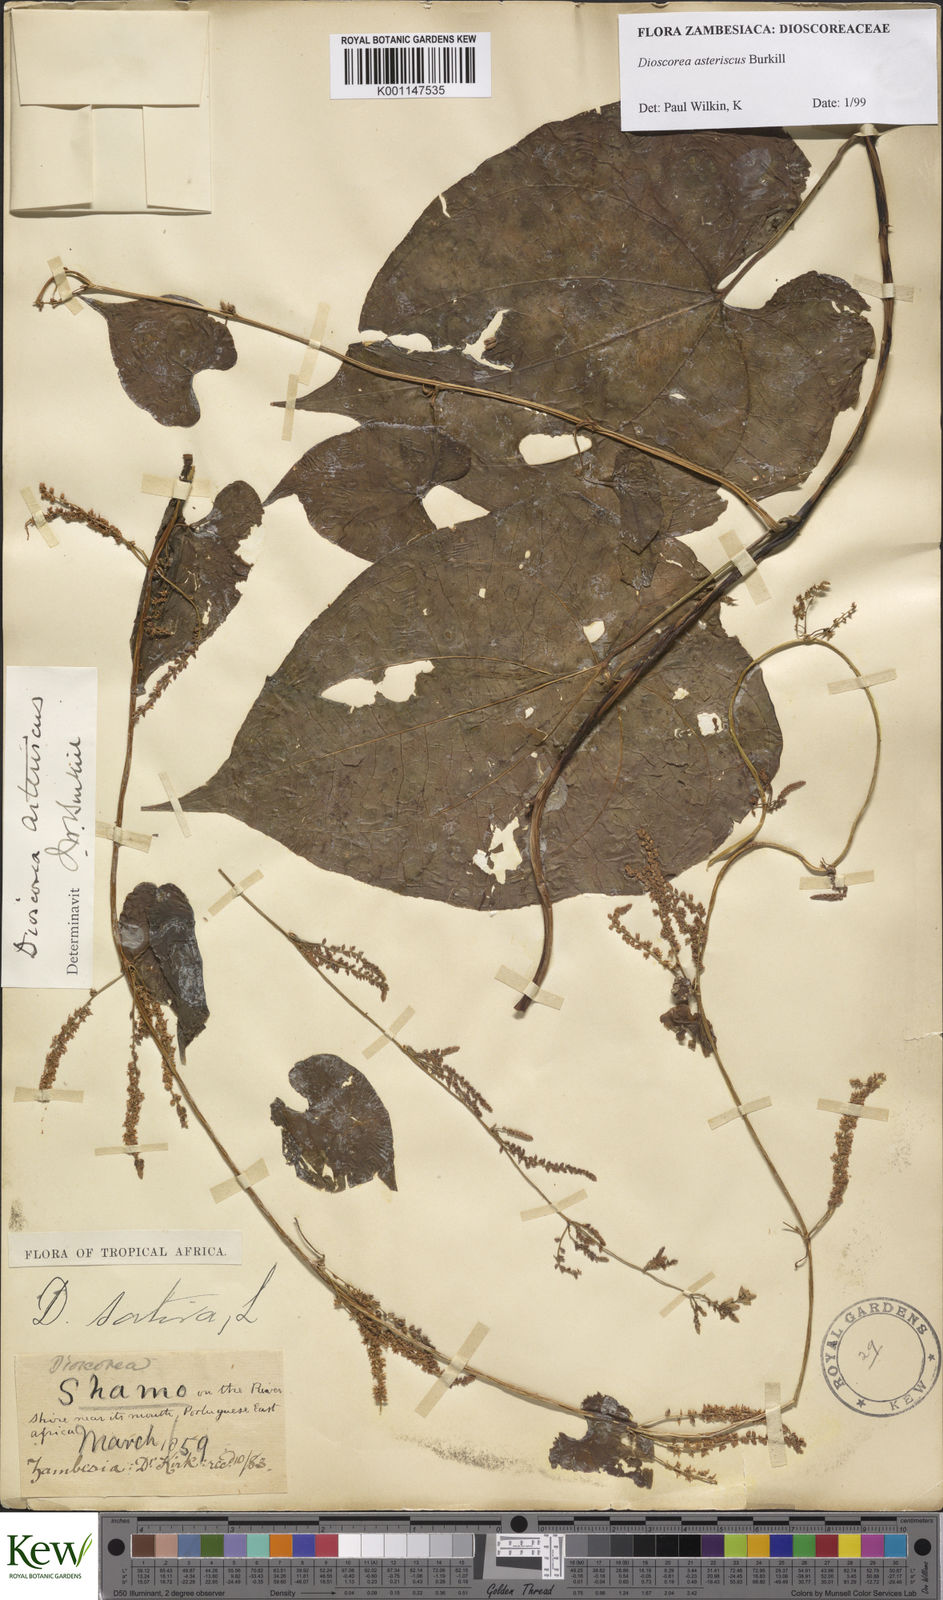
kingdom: Plantae
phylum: Tracheophyta
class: Liliopsida
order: Dioscoreales
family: Dioscoreaceae
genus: Dioscorea
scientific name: Dioscorea asteriscus
